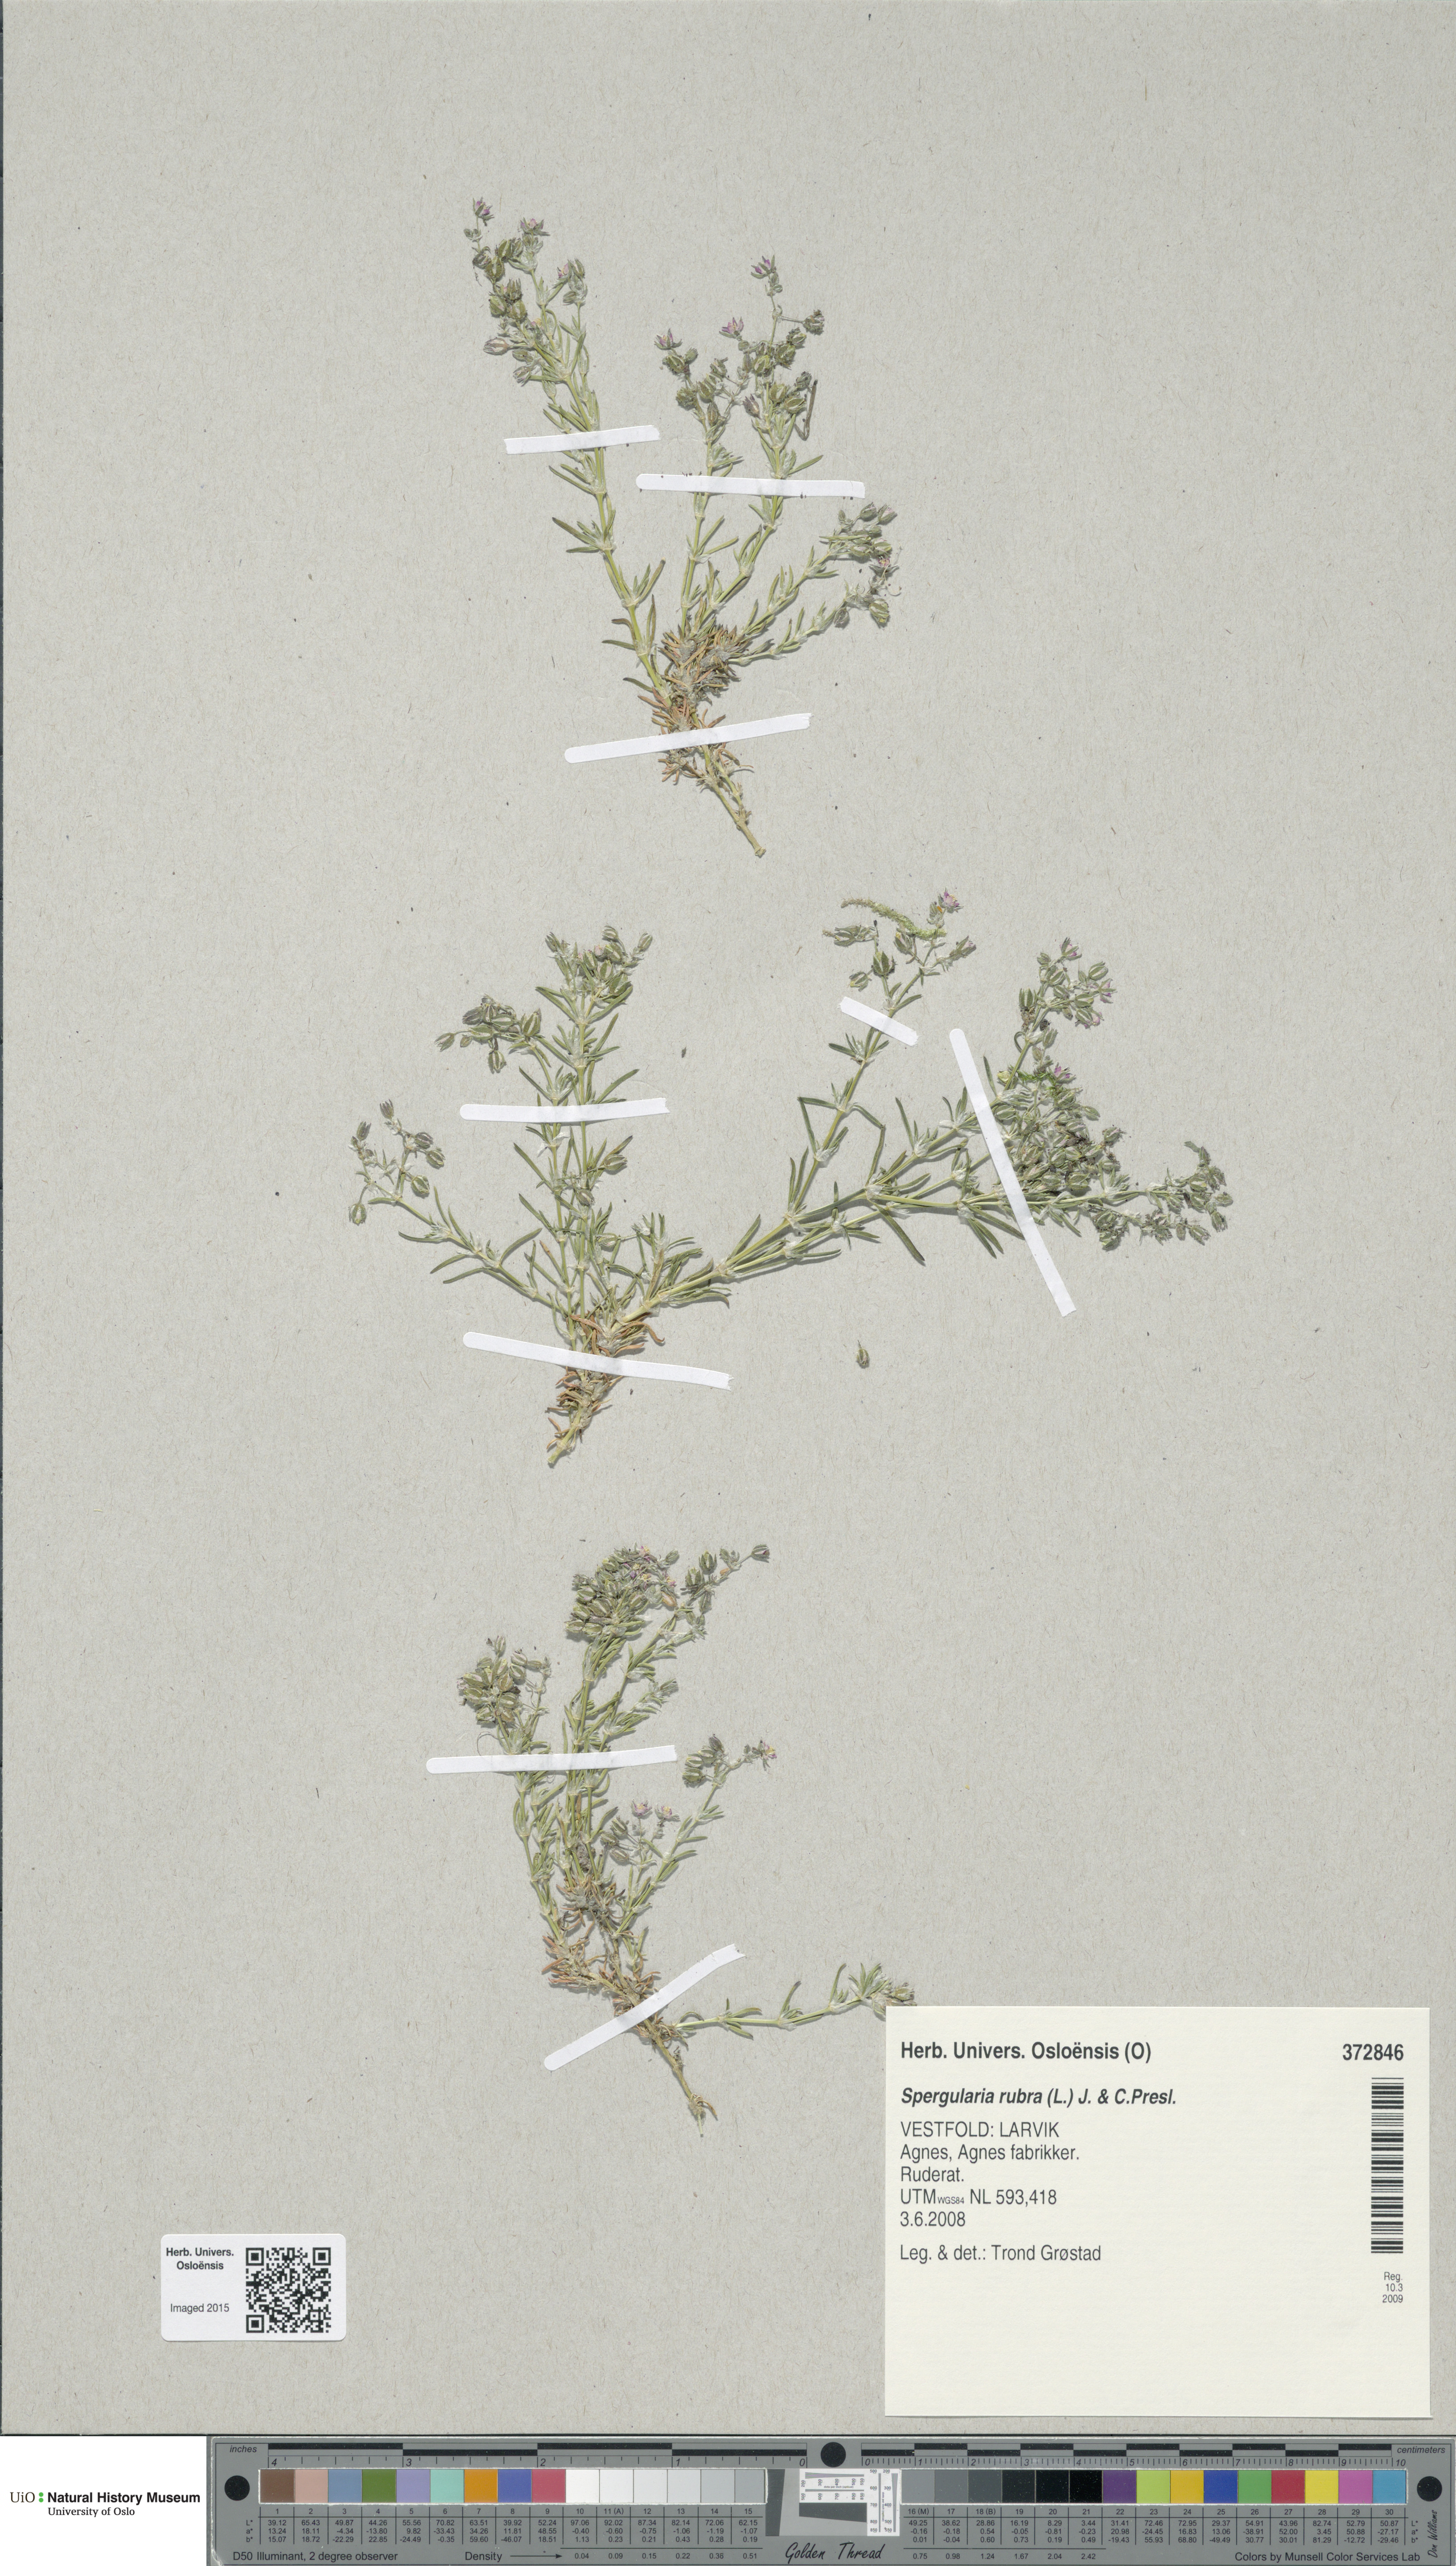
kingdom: Plantae
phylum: Tracheophyta
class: Magnoliopsida
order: Caryophyllales
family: Caryophyllaceae
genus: Spergularia
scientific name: Spergularia rubra
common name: Red sand-spurrey
